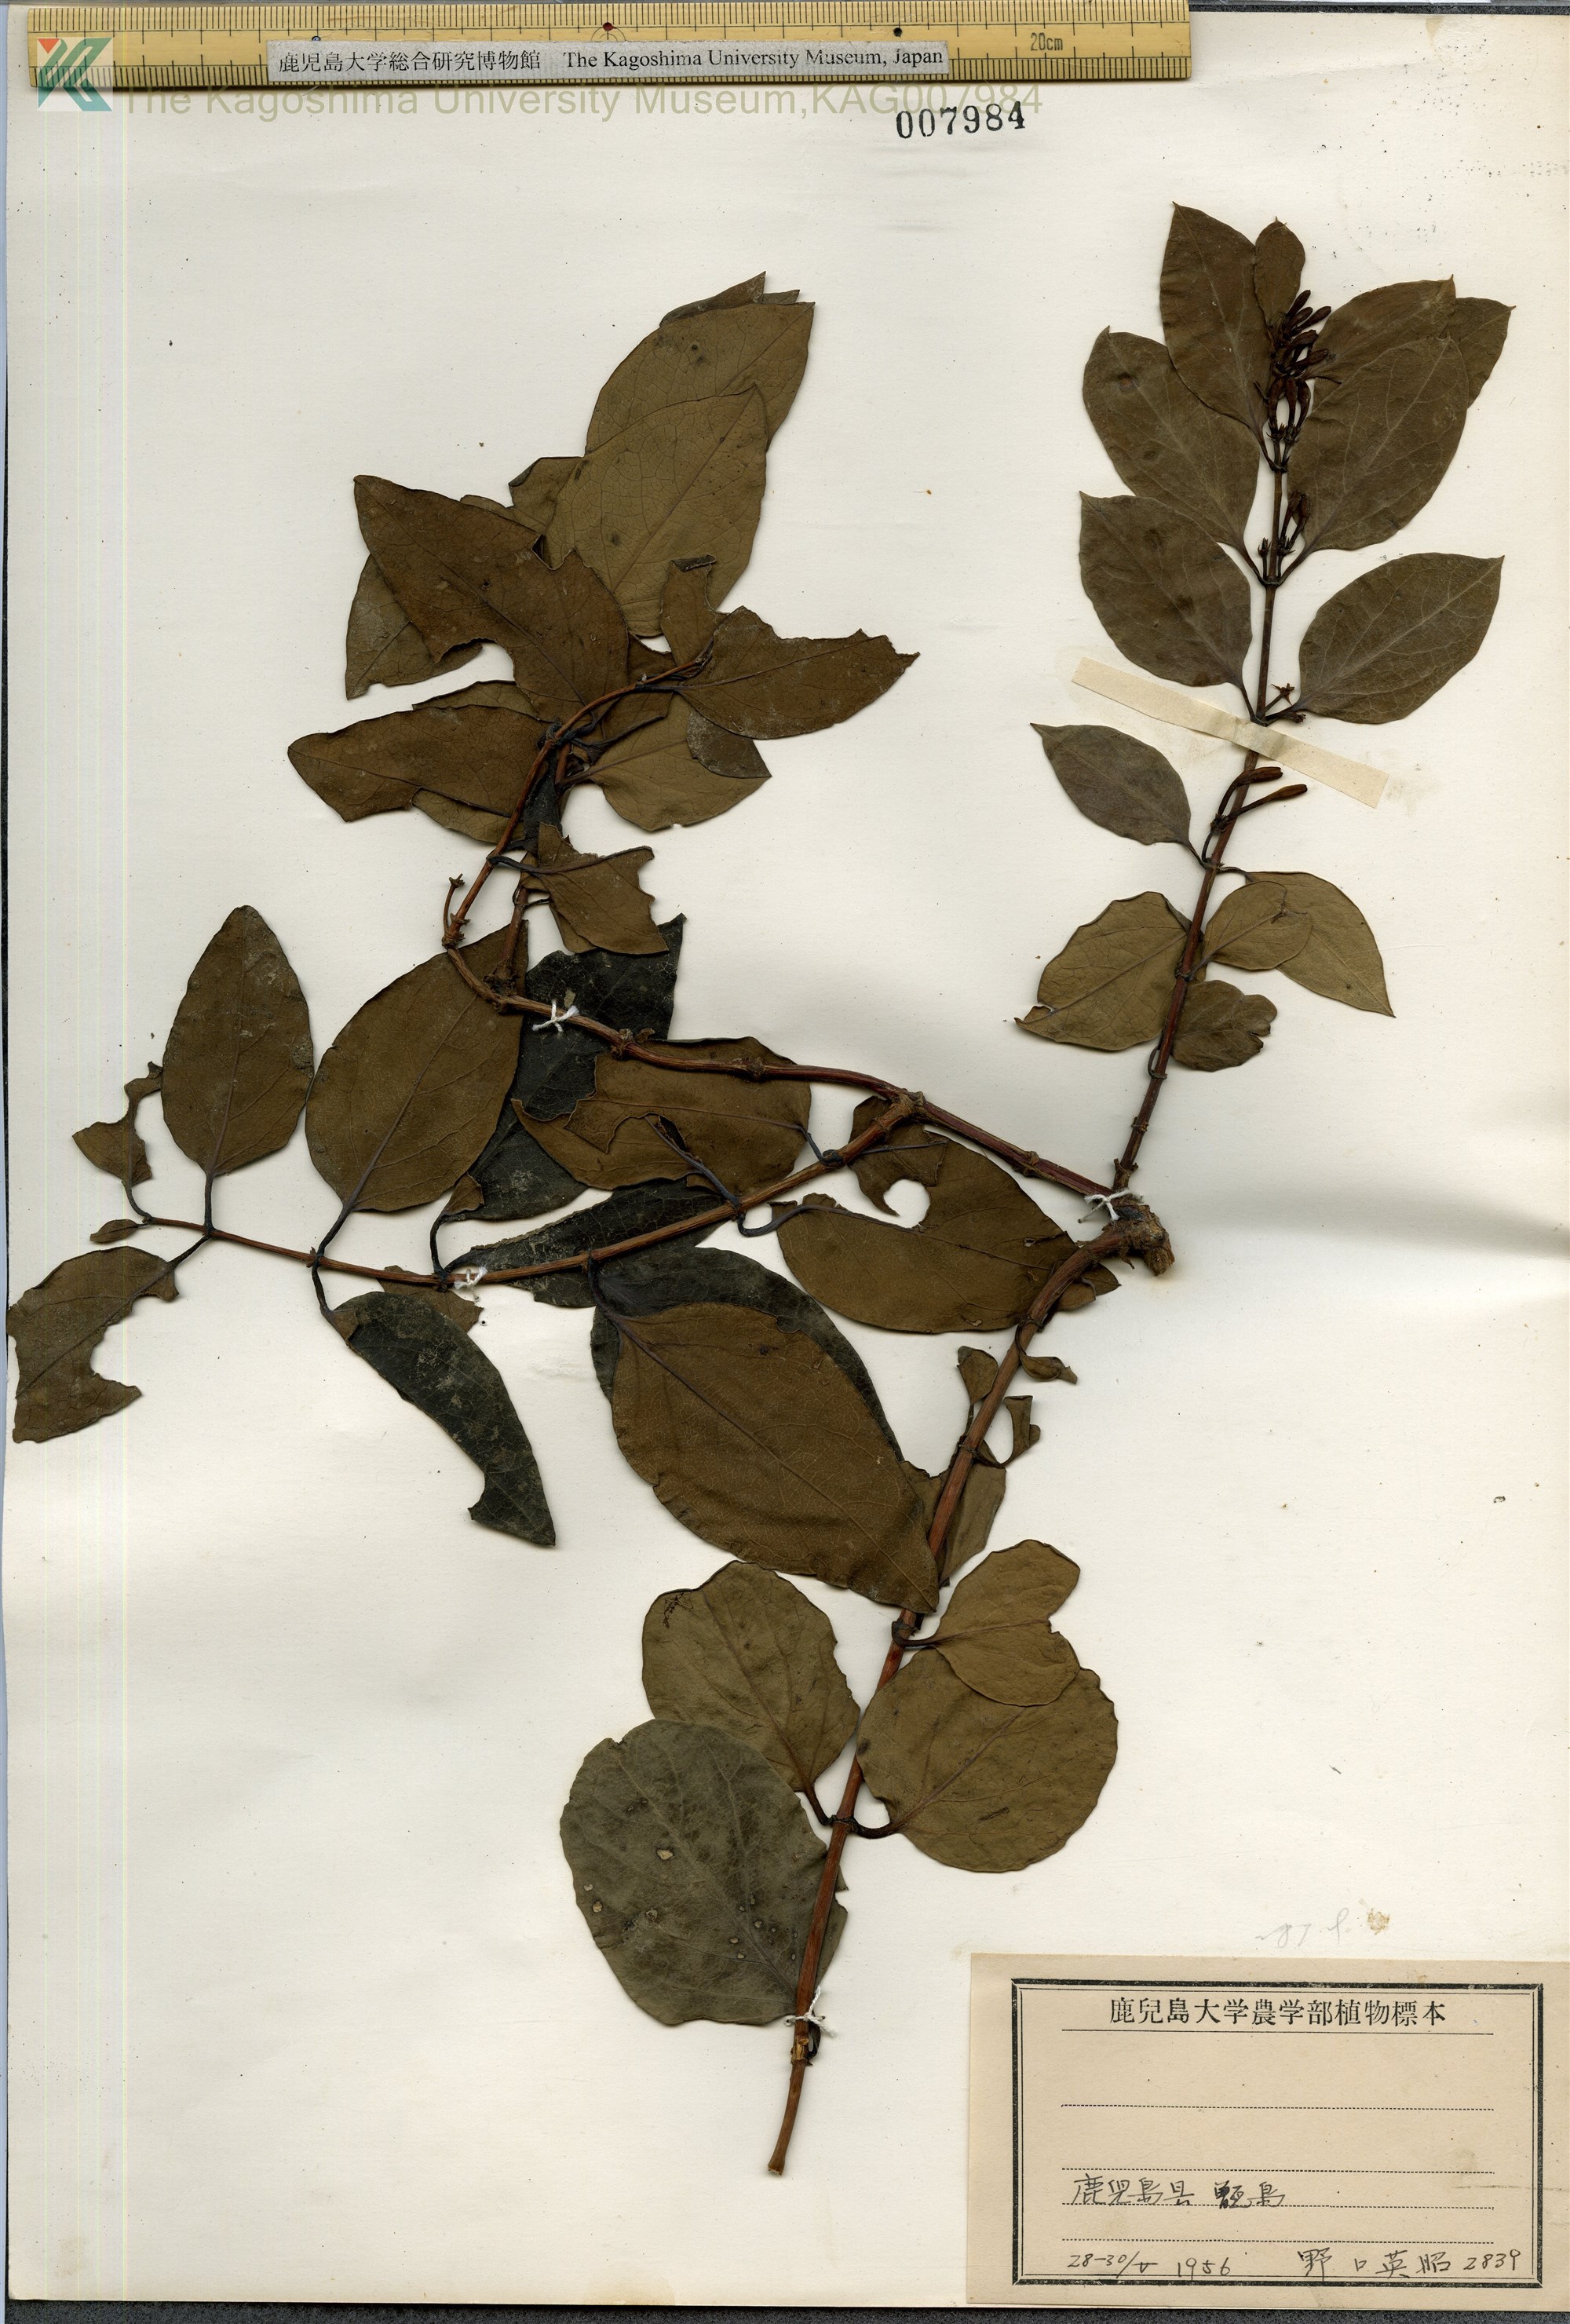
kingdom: Plantae
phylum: Tracheophyta
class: Magnoliopsida
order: Dipsacales
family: Caprifoliaceae
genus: Lonicera
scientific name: Lonicera affinis
